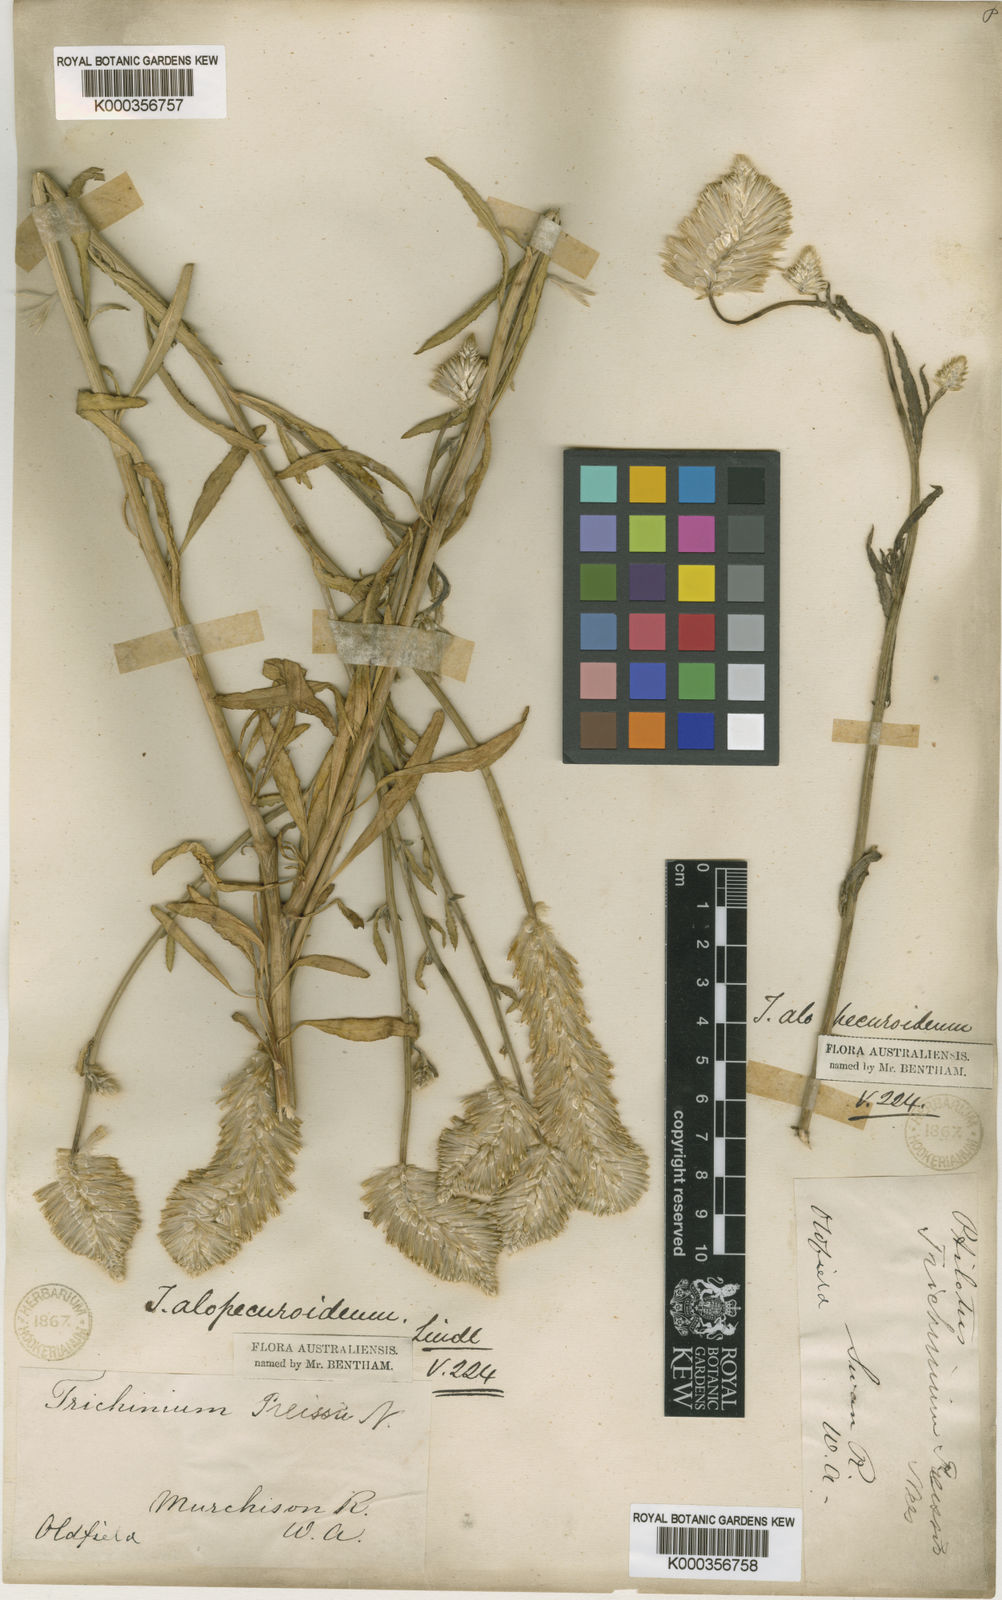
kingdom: Plantae
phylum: Tracheophyta
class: Magnoliopsida
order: Caryophyllales
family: Amaranthaceae
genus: Ptilotus
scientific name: Ptilotus polystachyus
